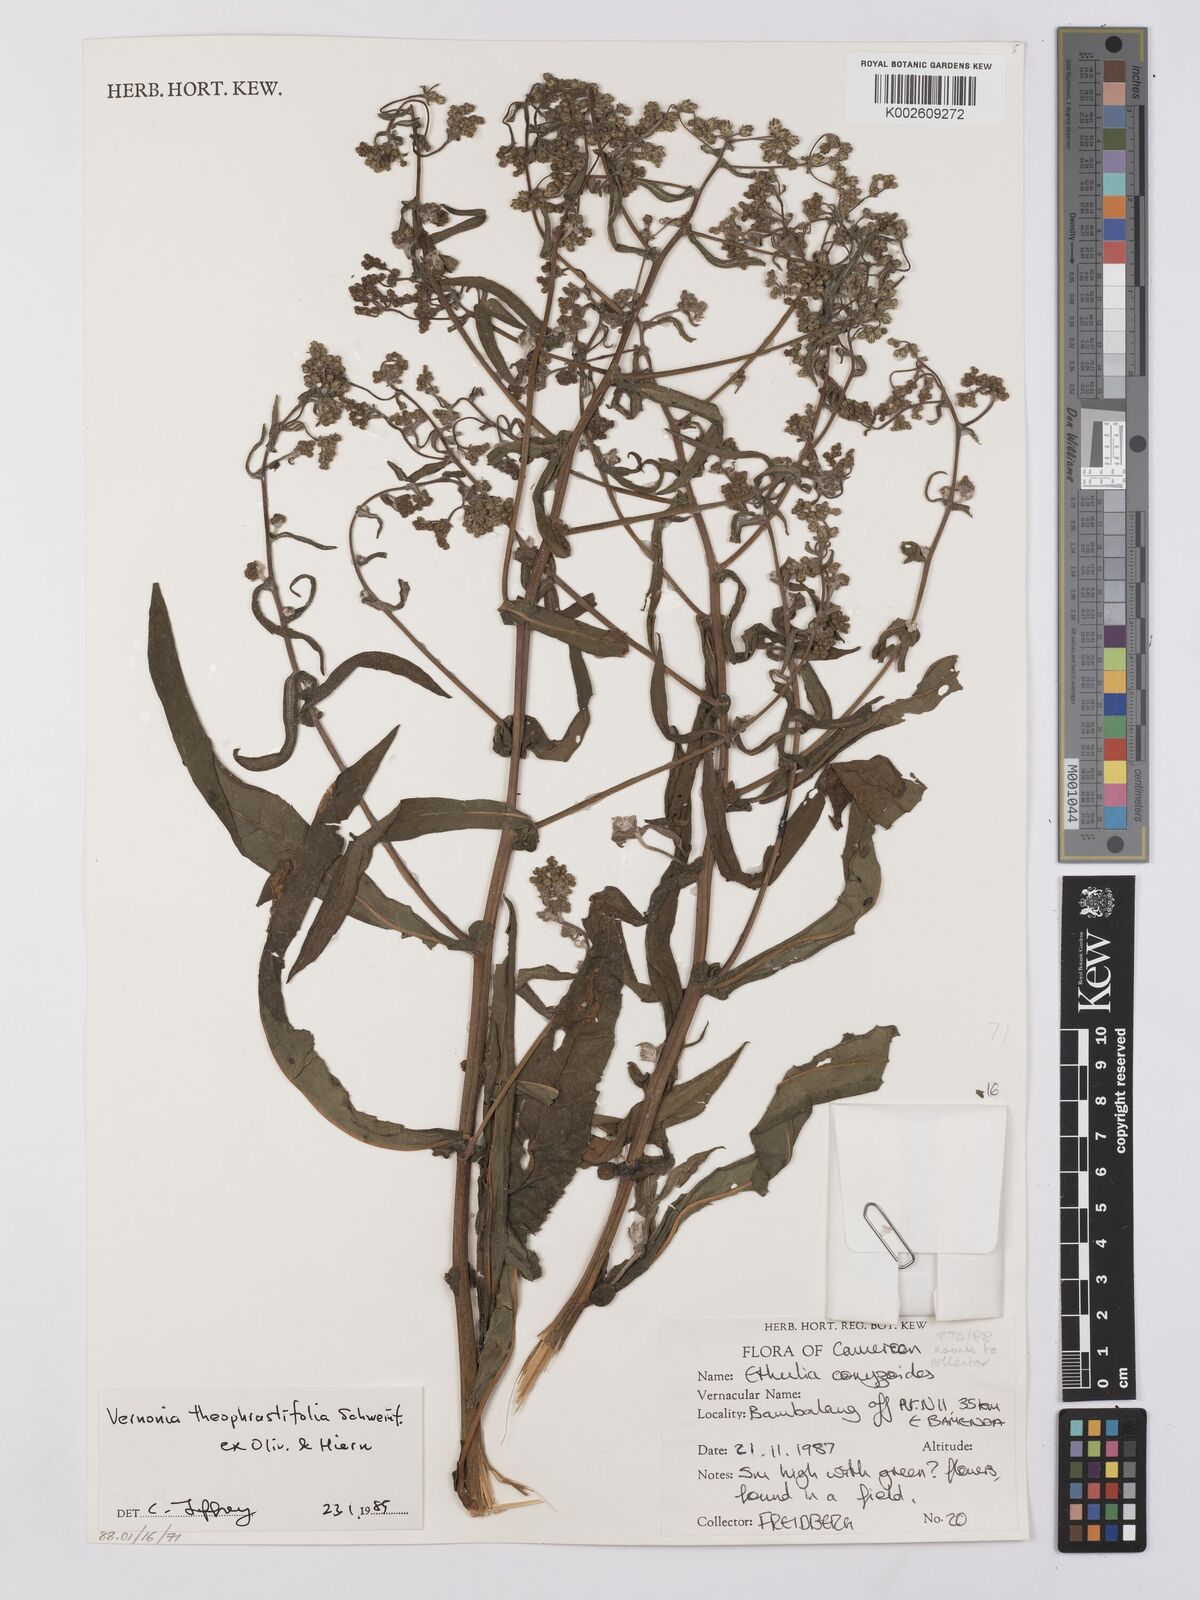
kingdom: Plantae
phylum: Tracheophyta
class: Magnoliopsida
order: Asterales
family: Asteraceae
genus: Gymnanthemum
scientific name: Gymnanthemum theophrastifolium
